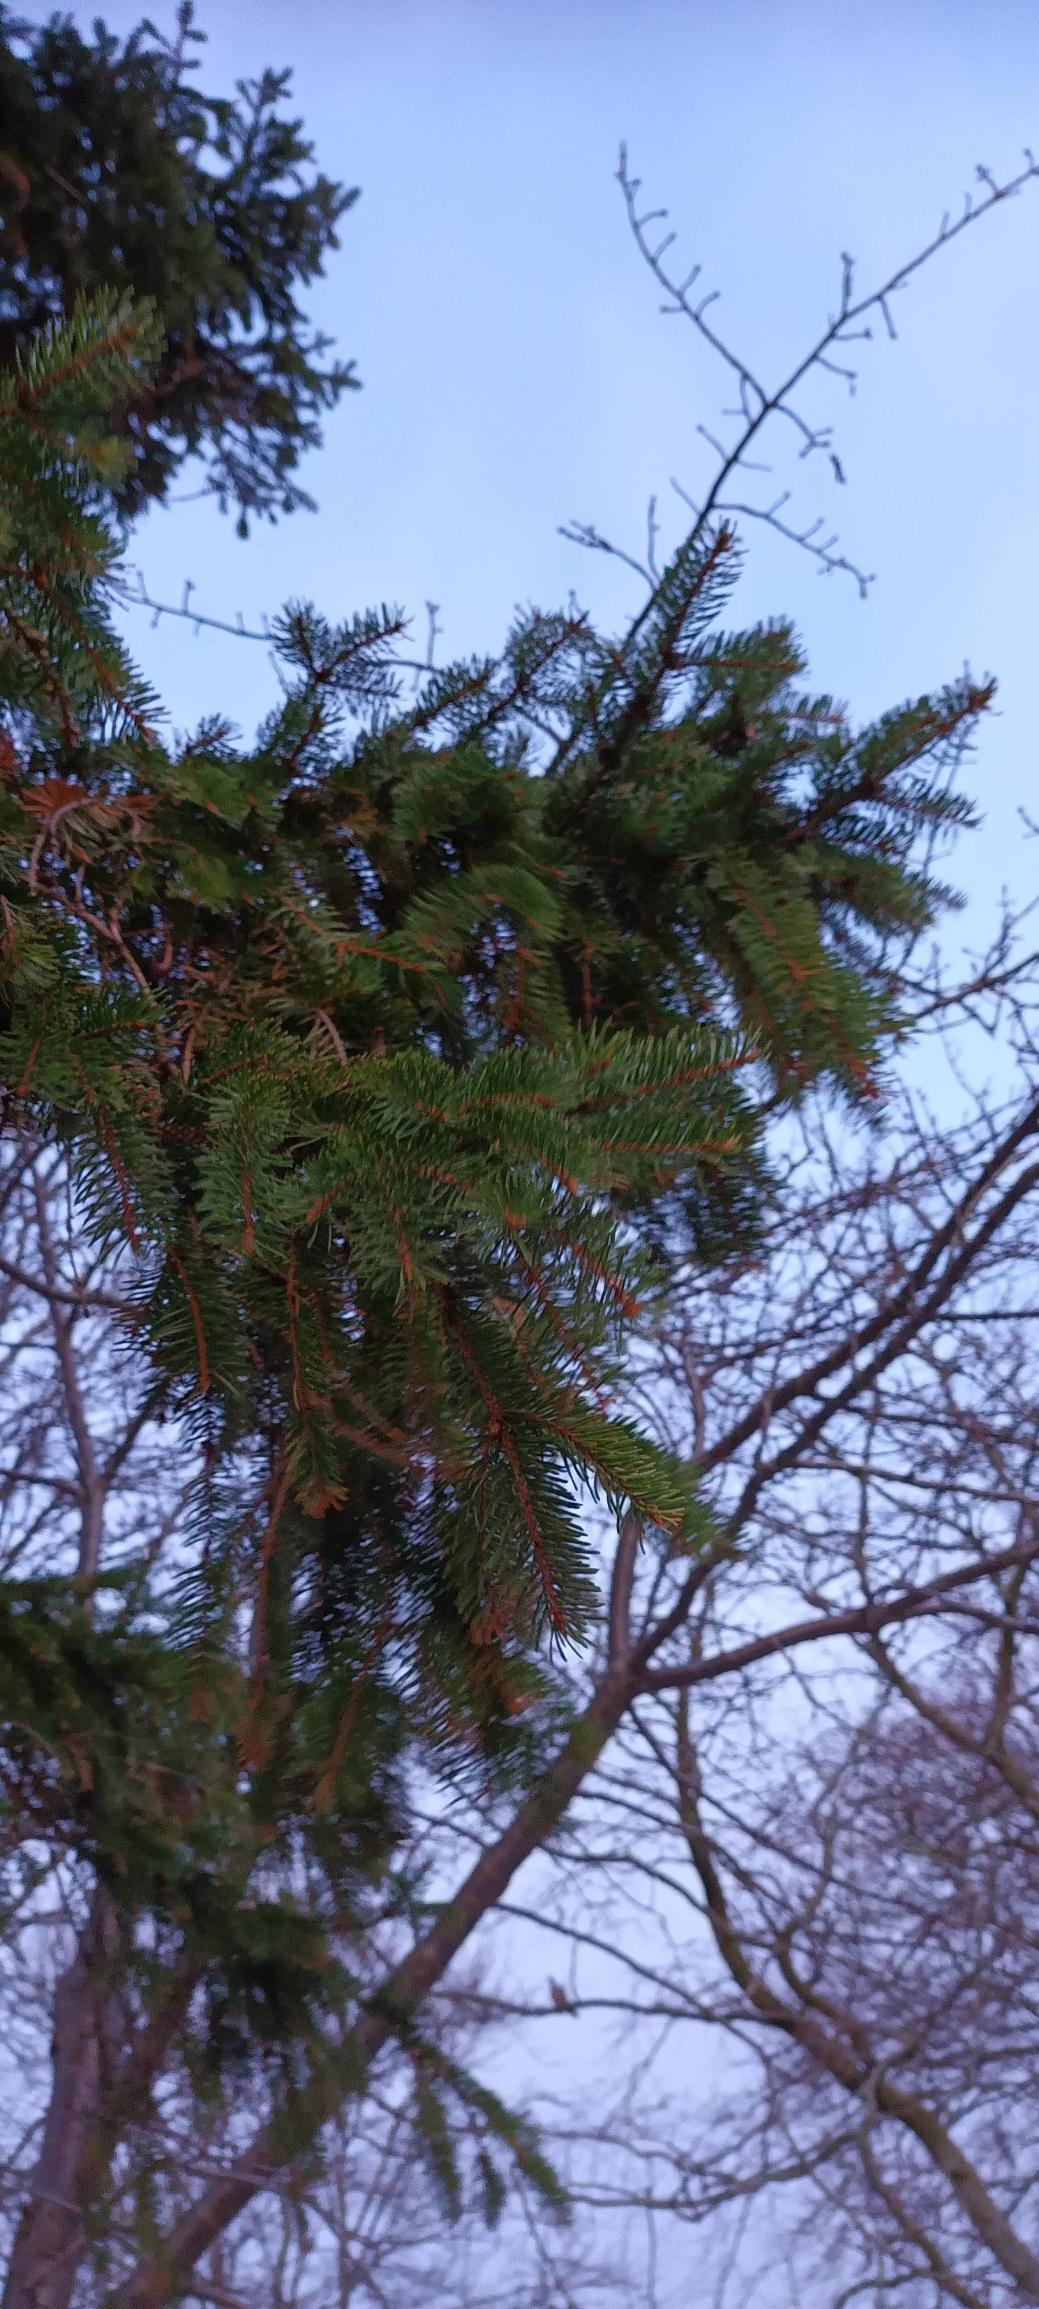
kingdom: Plantae
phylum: Tracheophyta
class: Pinopsida
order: Pinales
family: Pinaceae
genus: Picea
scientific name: Picea abies
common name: Rød-gran
